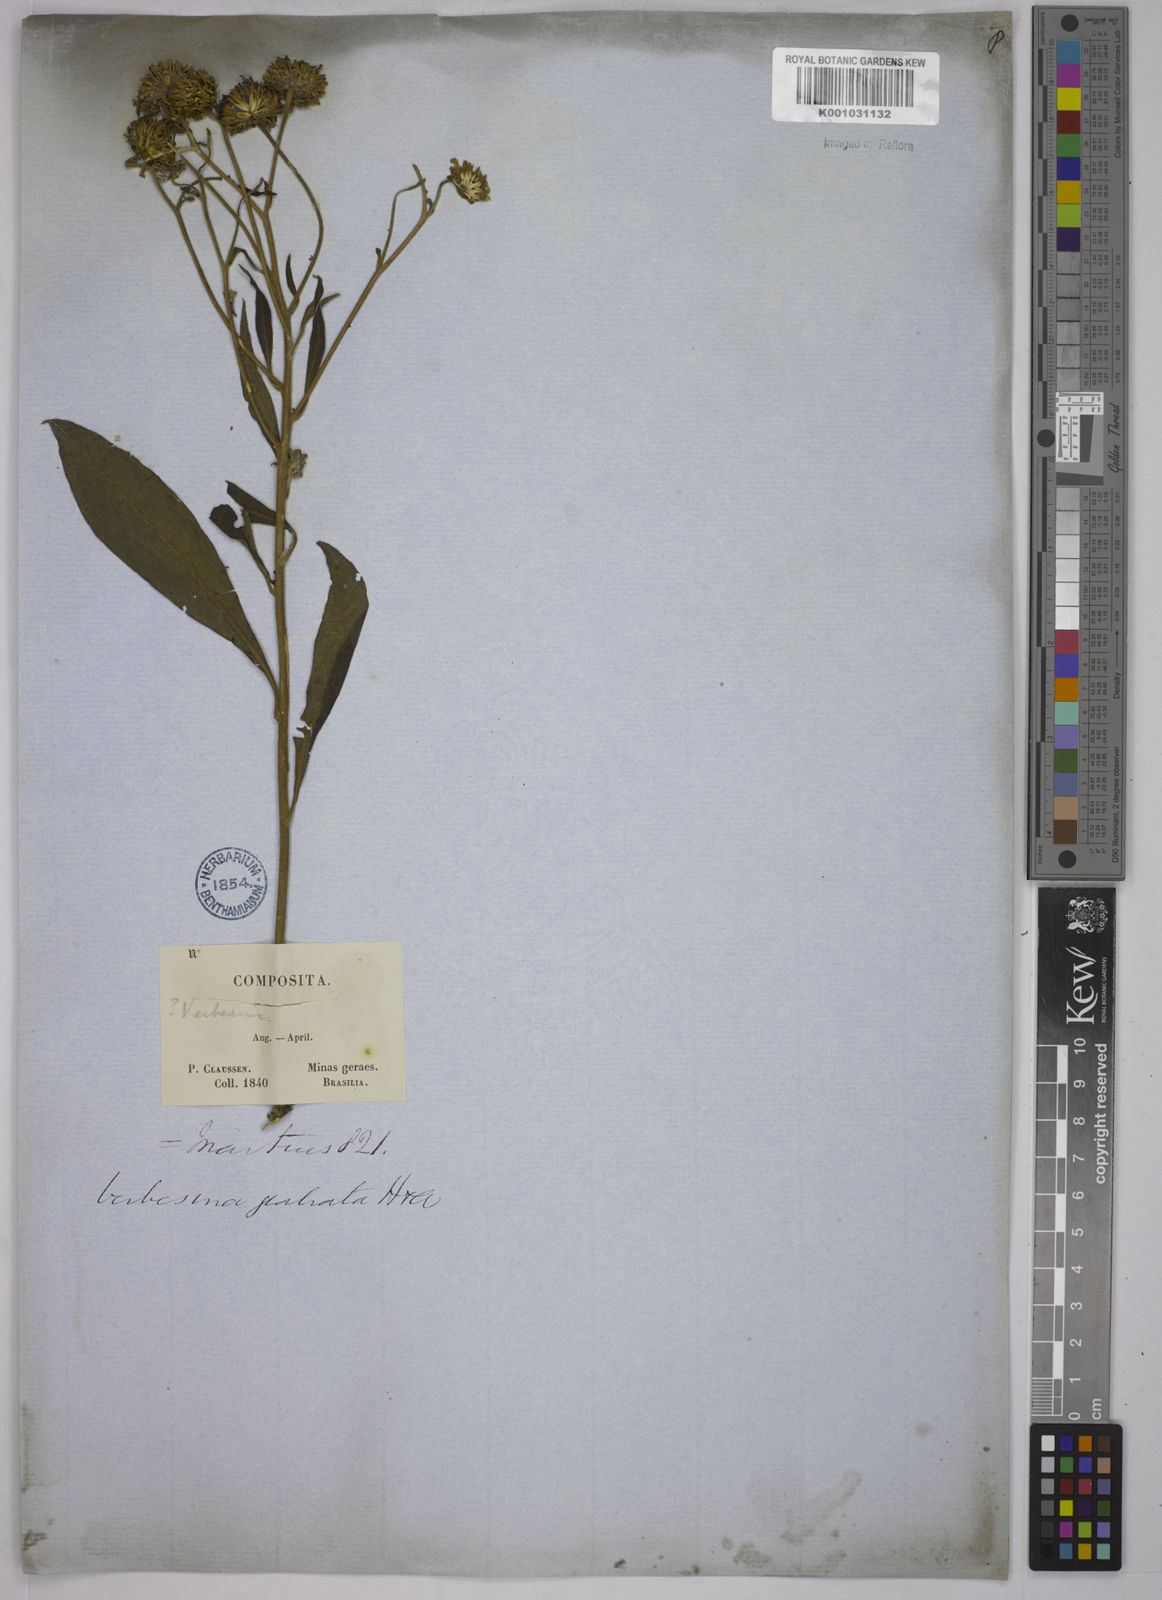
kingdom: Plantae
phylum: Tracheophyta
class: Magnoliopsida
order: Asterales
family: Asteraceae
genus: Verbesina
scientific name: Verbesina glabrata
